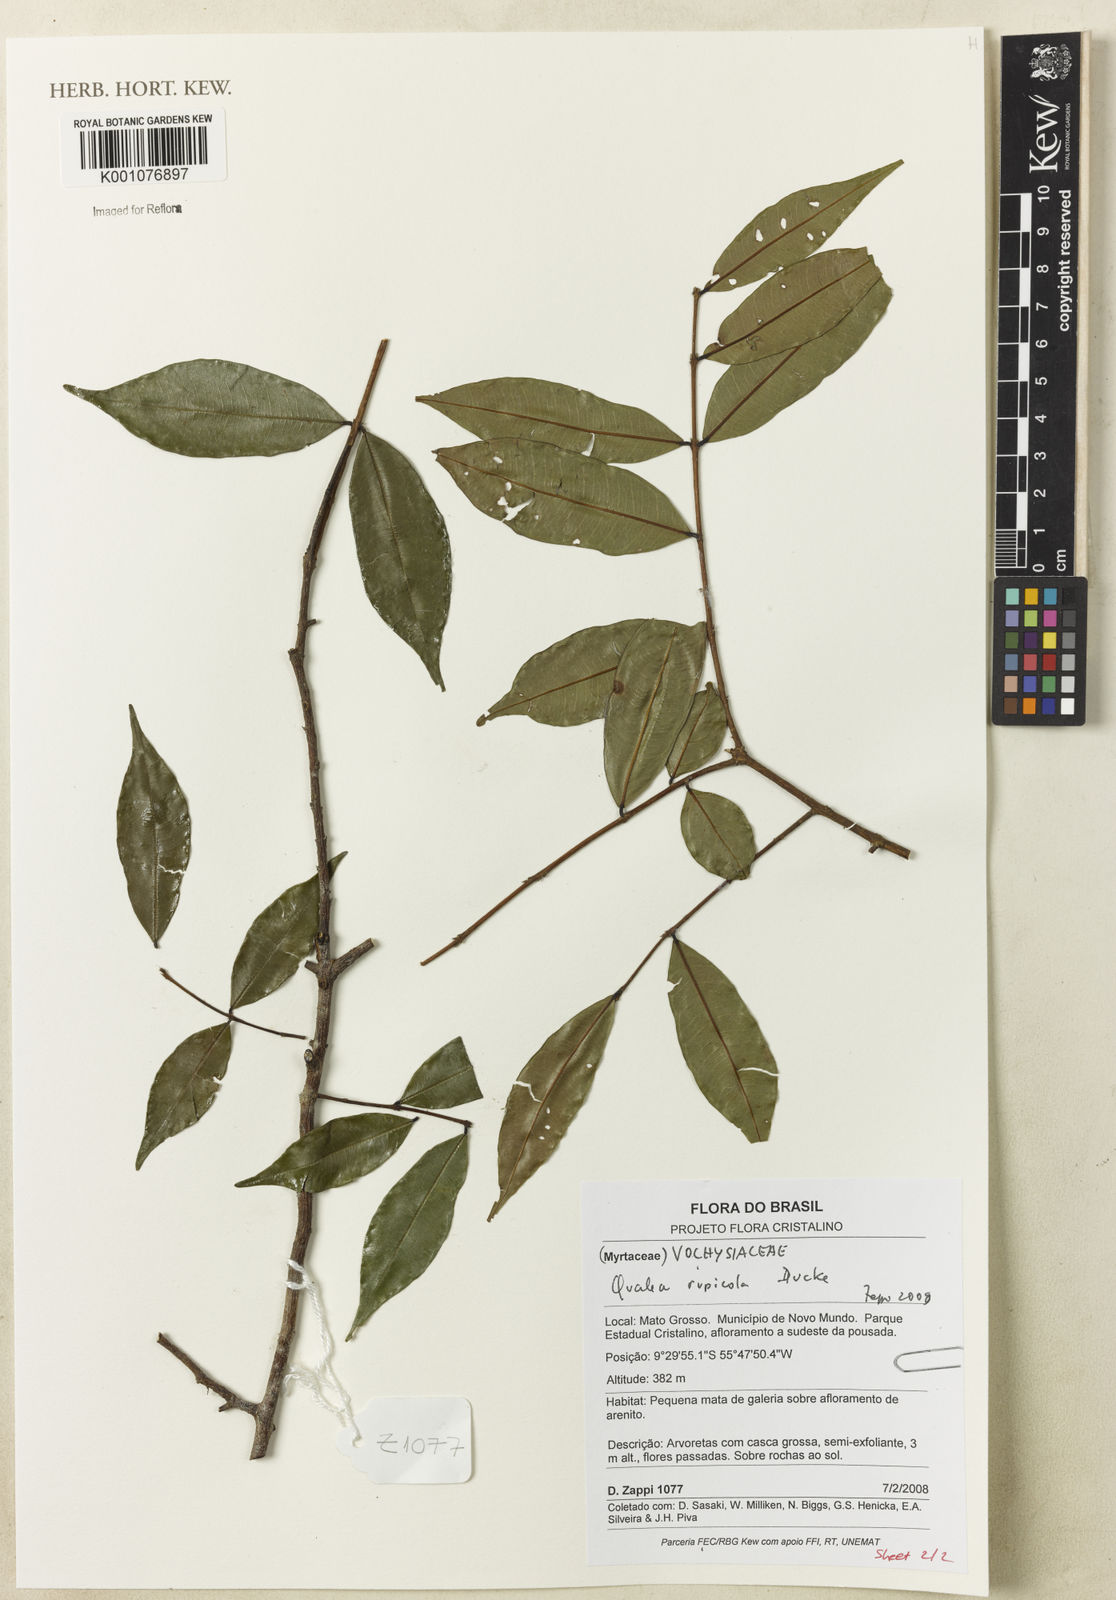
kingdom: Plantae
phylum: Tracheophyta
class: Magnoliopsida
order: Myrtales
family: Vochysiaceae
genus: Qualea
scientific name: Qualea rupicola
